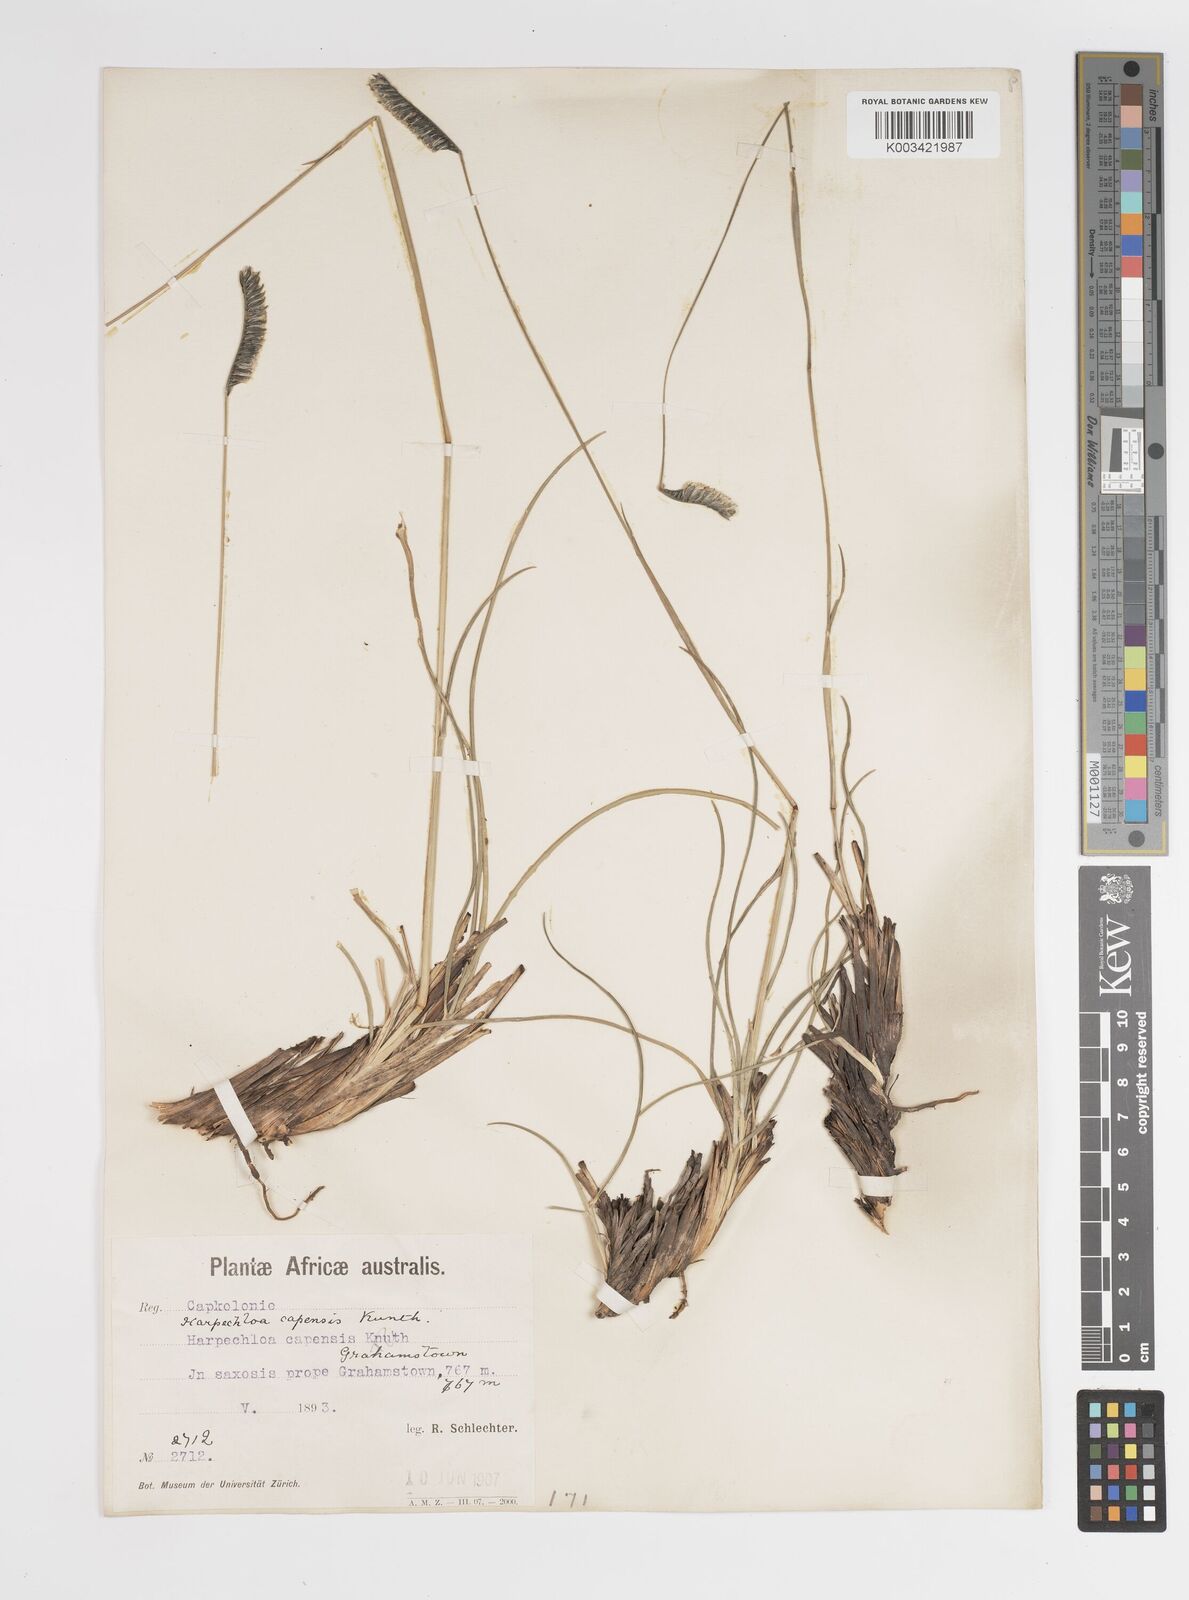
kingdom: Plantae
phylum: Tracheophyta
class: Liliopsida
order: Poales
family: Poaceae
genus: Harpochloa
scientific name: Harpochloa falx
